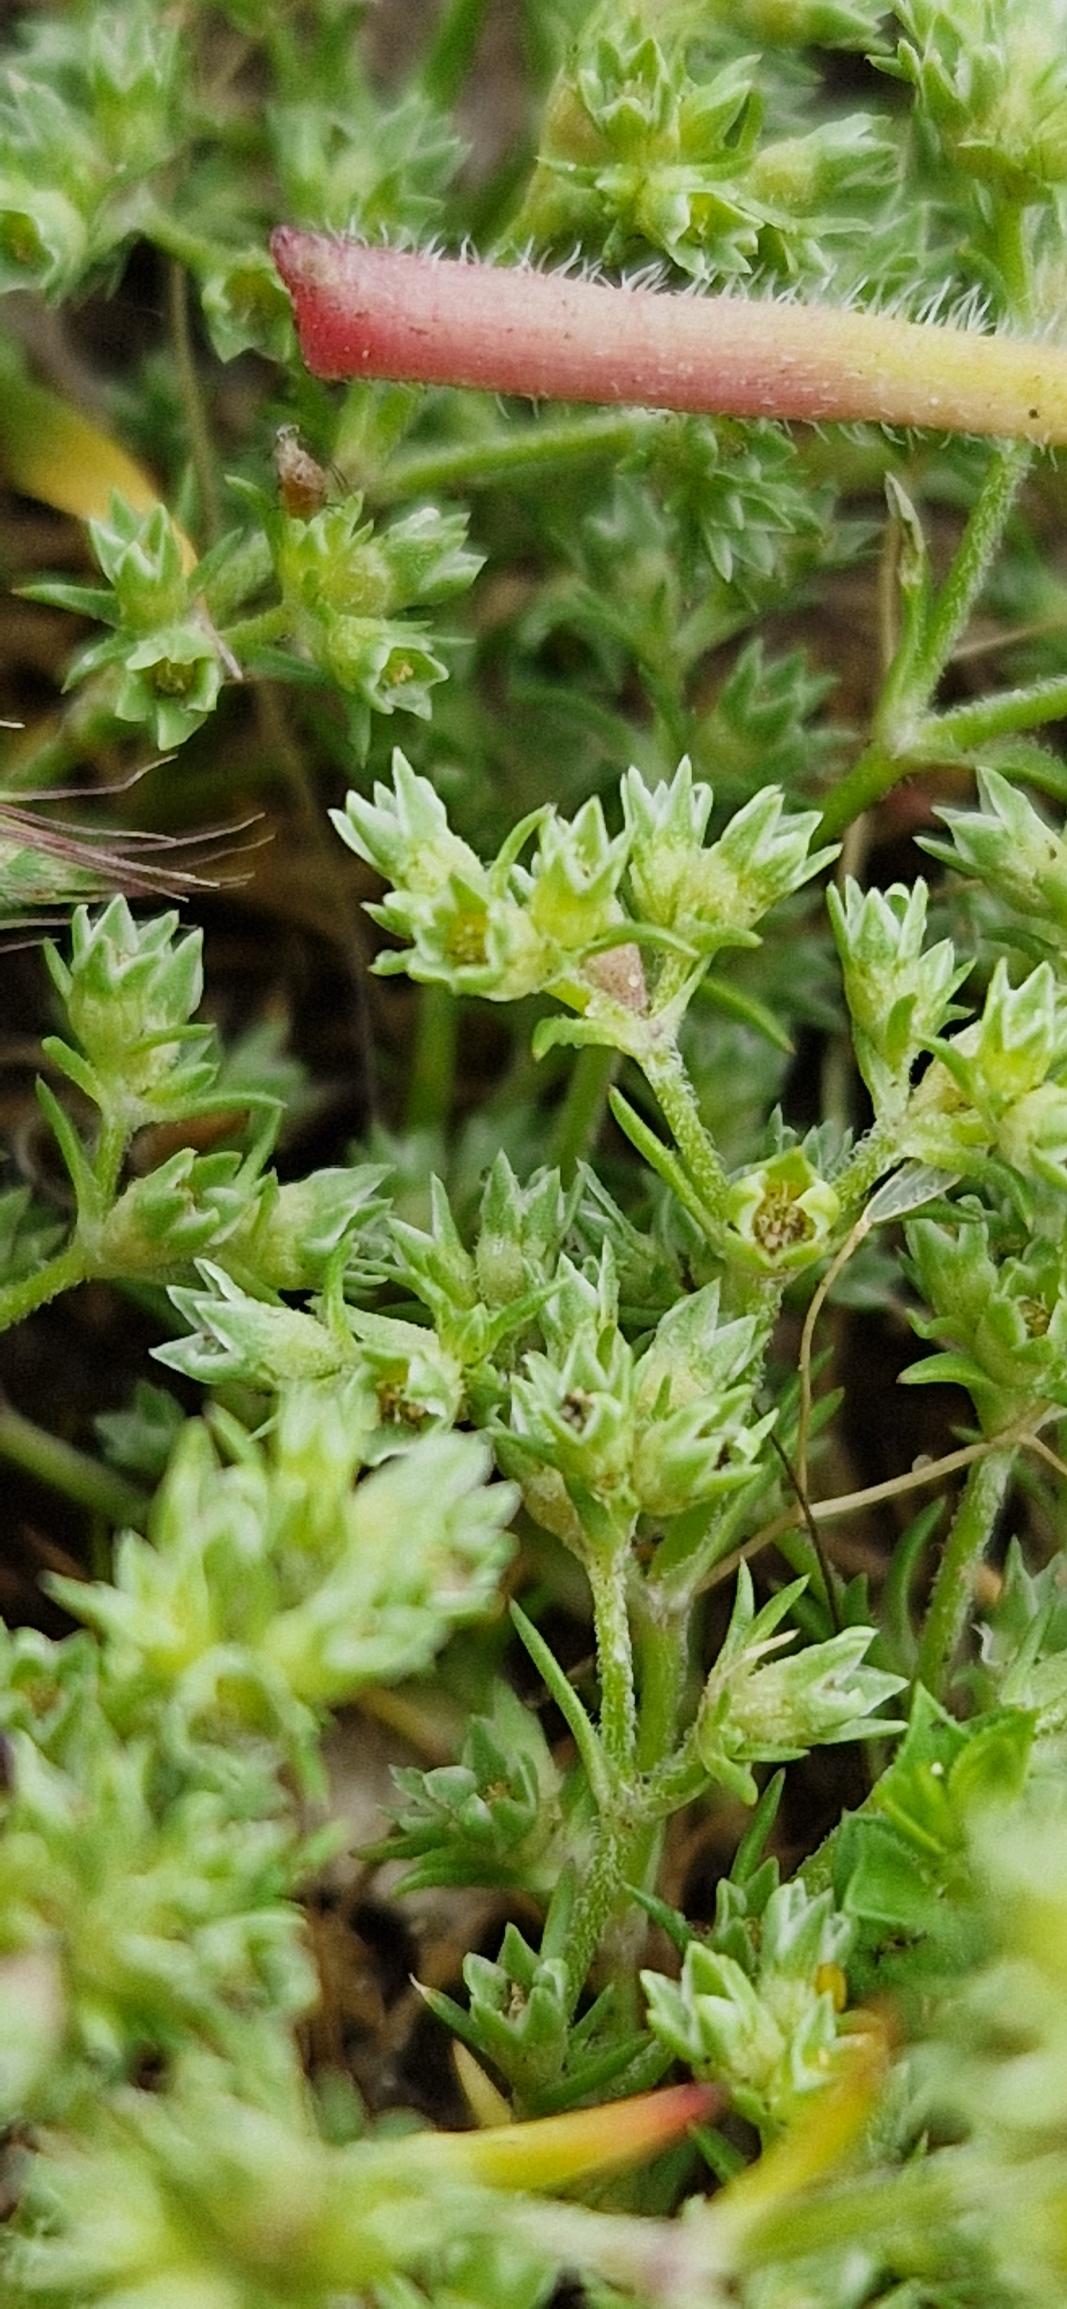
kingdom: Plantae
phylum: Tracheophyta
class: Magnoliopsida
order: Caryophyllales
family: Caryophyllaceae
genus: Scleranthus
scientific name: Scleranthus annuus
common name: Enårig knavel
